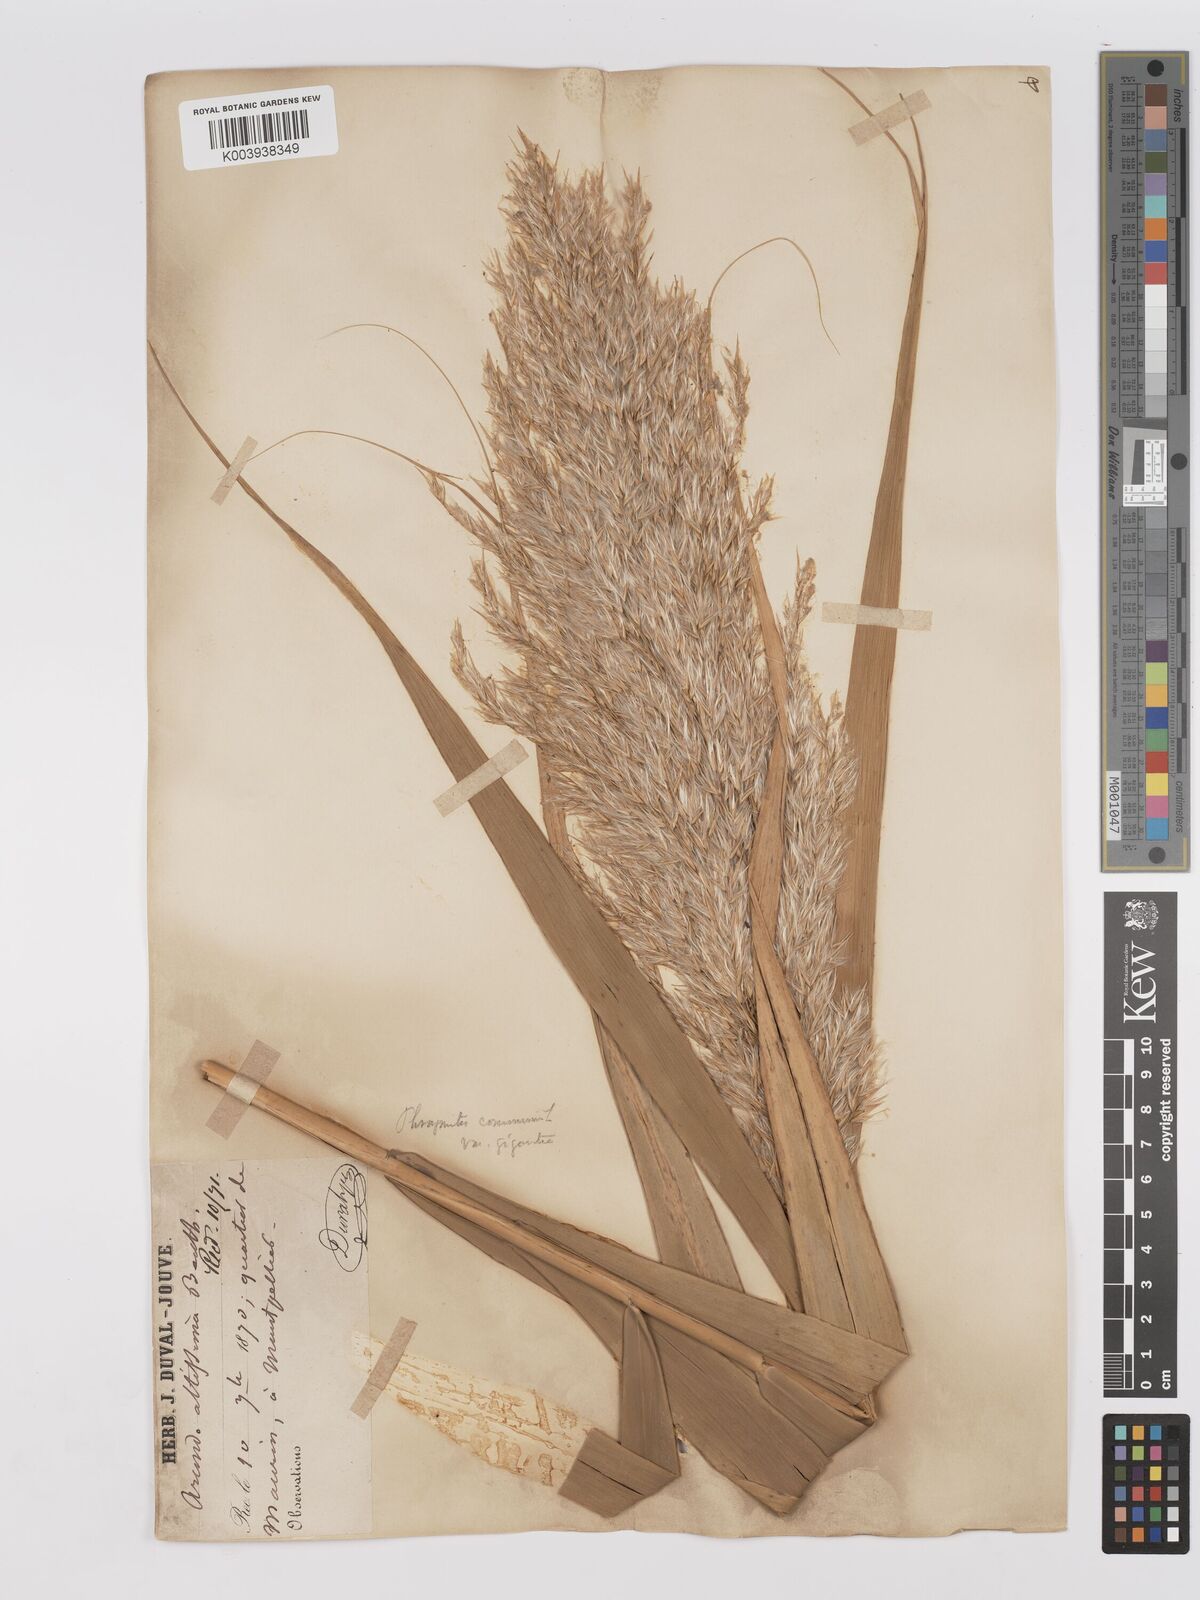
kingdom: Plantae
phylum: Tracheophyta
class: Liliopsida
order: Poales
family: Poaceae
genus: Phragmites
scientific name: Phragmites australis
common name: Common reed
